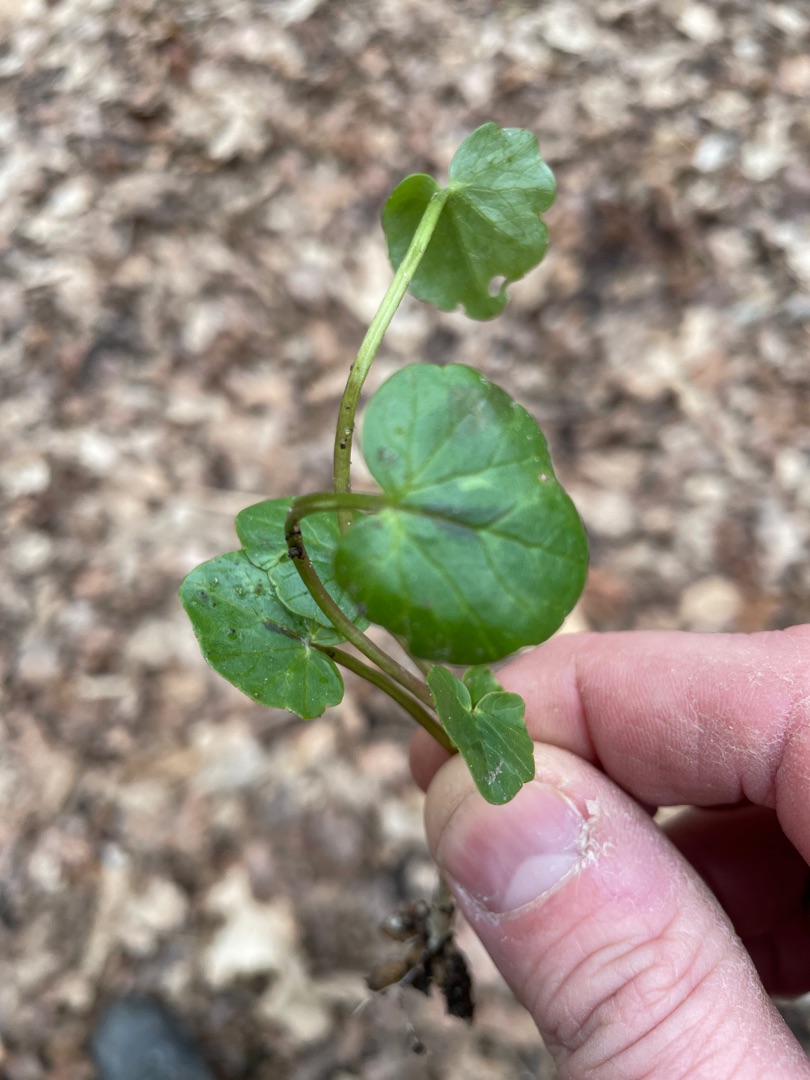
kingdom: Plantae
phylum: Tracheophyta
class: Magnoliopsida
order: Ranunculales
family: Ranunculaceae
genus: Ficaria
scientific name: Ficaria verna
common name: Vorterod
